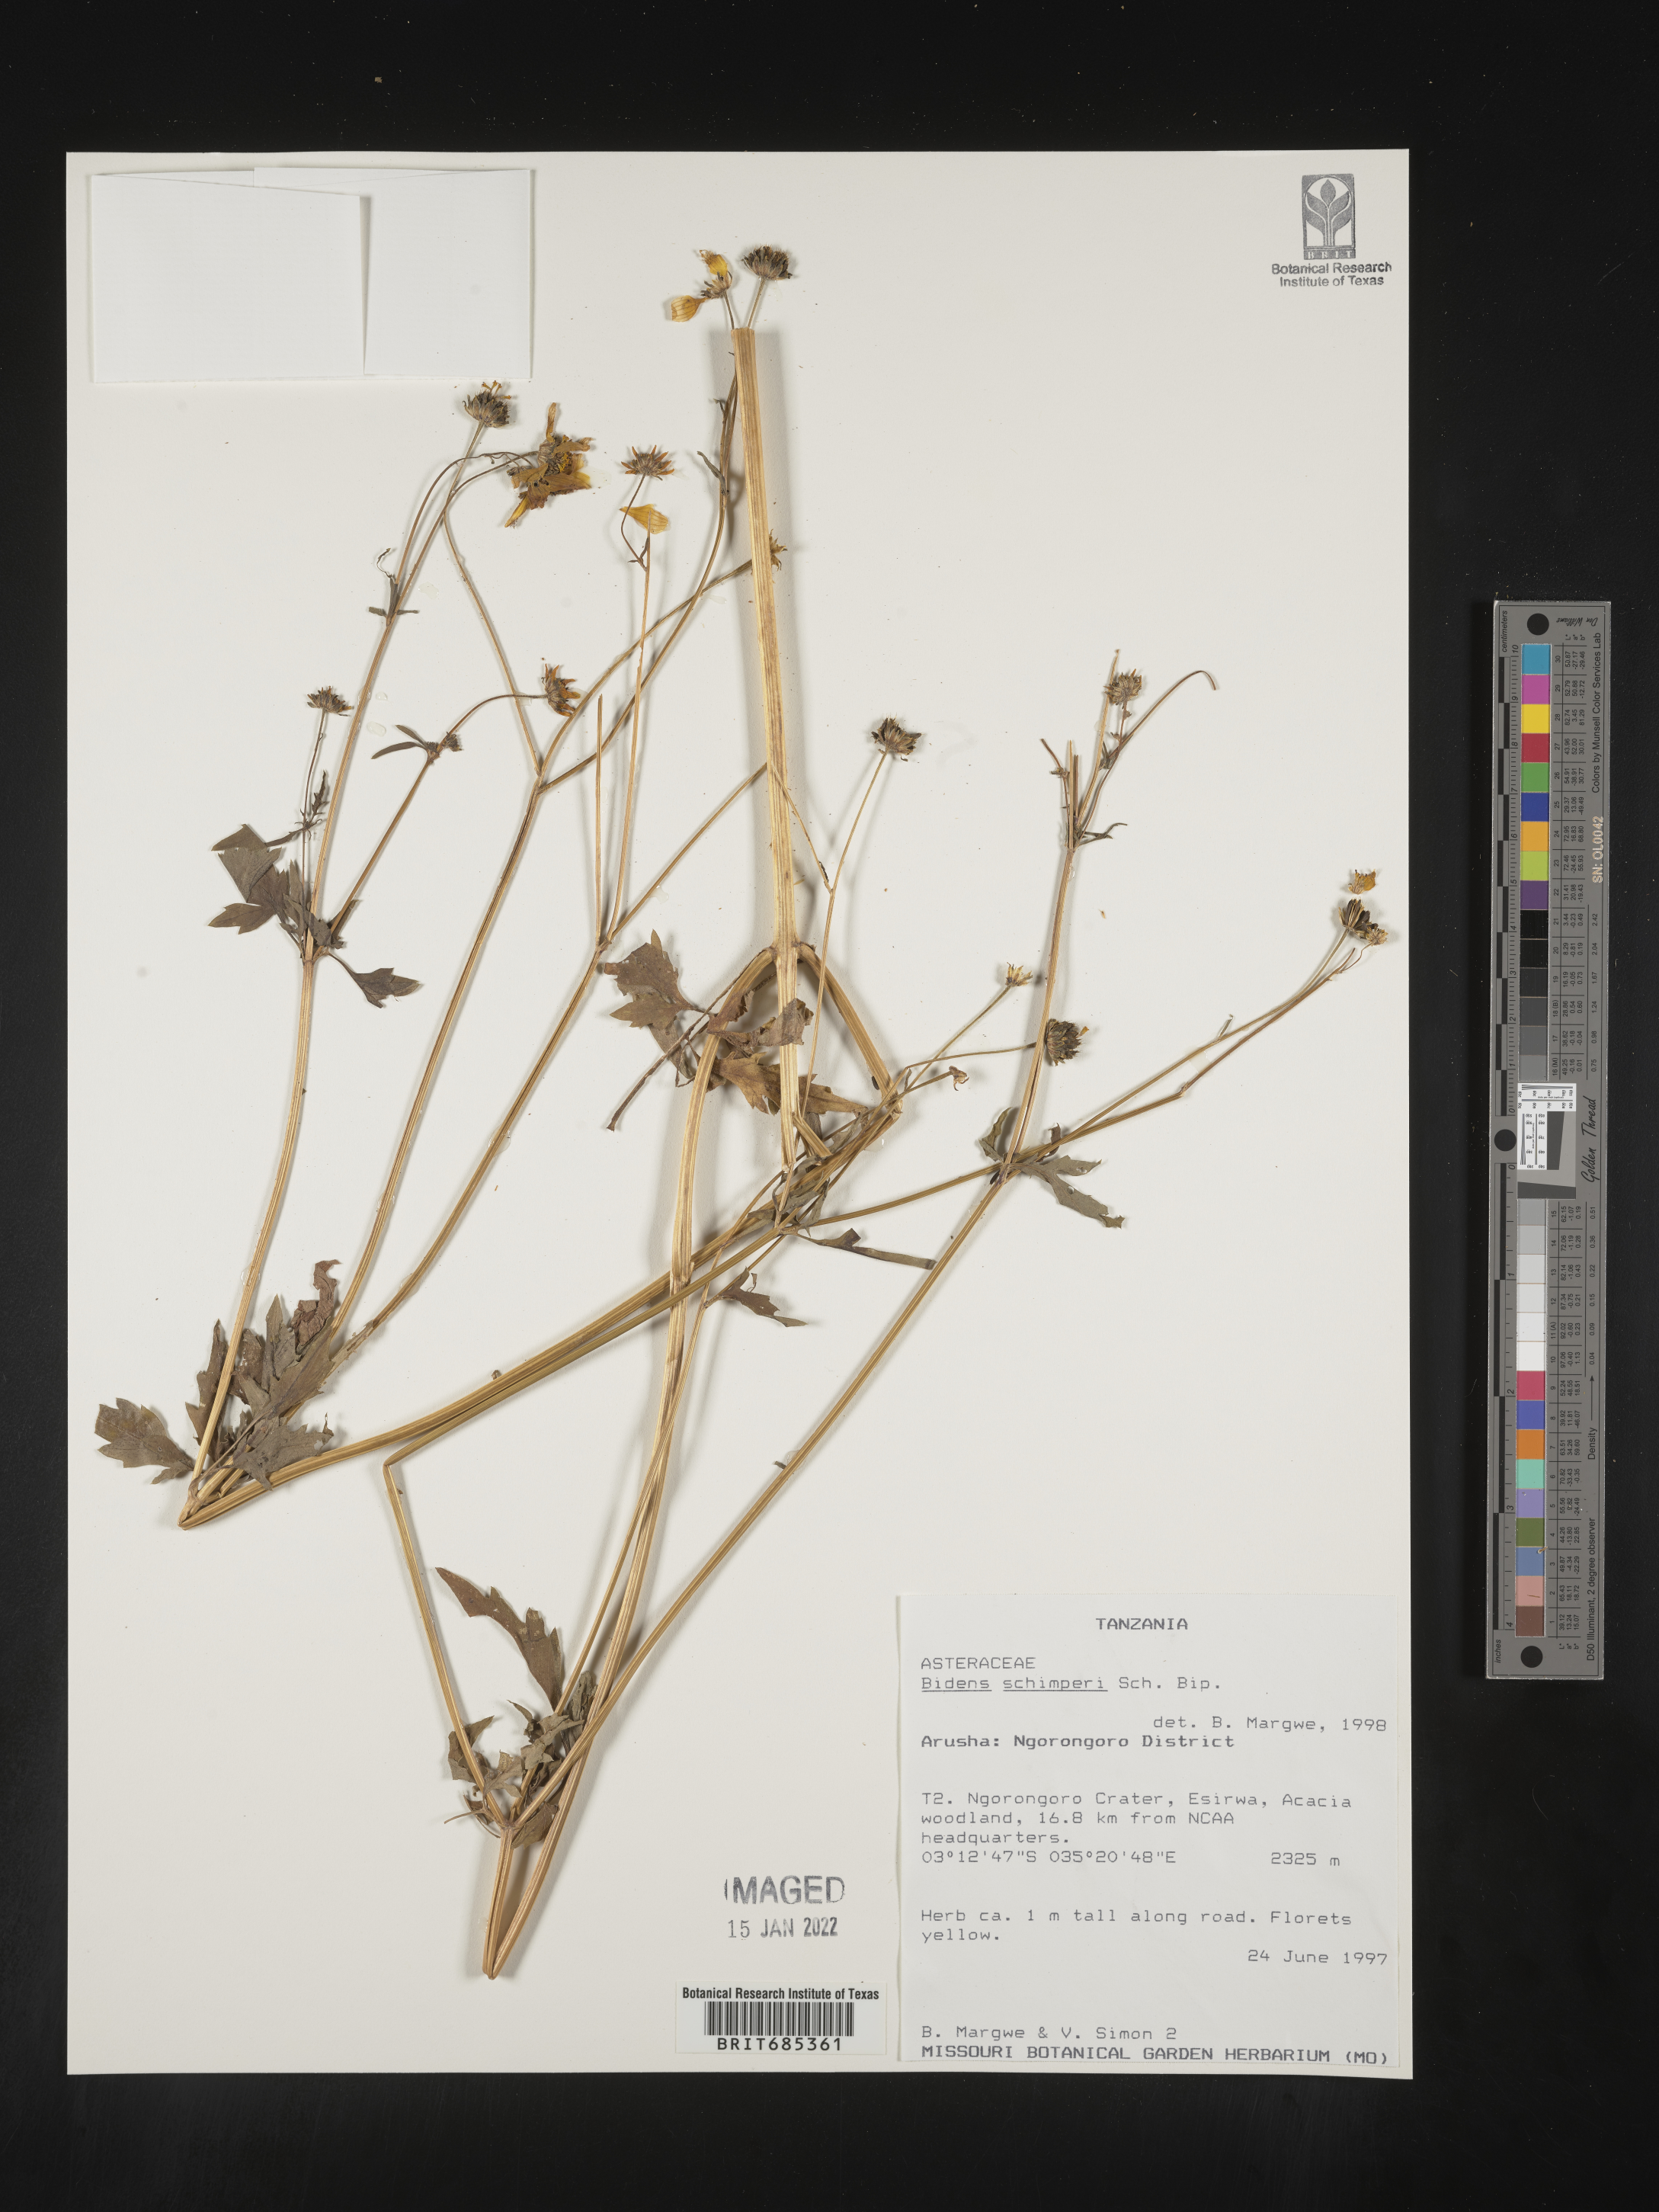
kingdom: Plantae
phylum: Tracheophyta
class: Magnoliopsida
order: Asterales
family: Asteraceae
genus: Bidens
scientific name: Bidens
